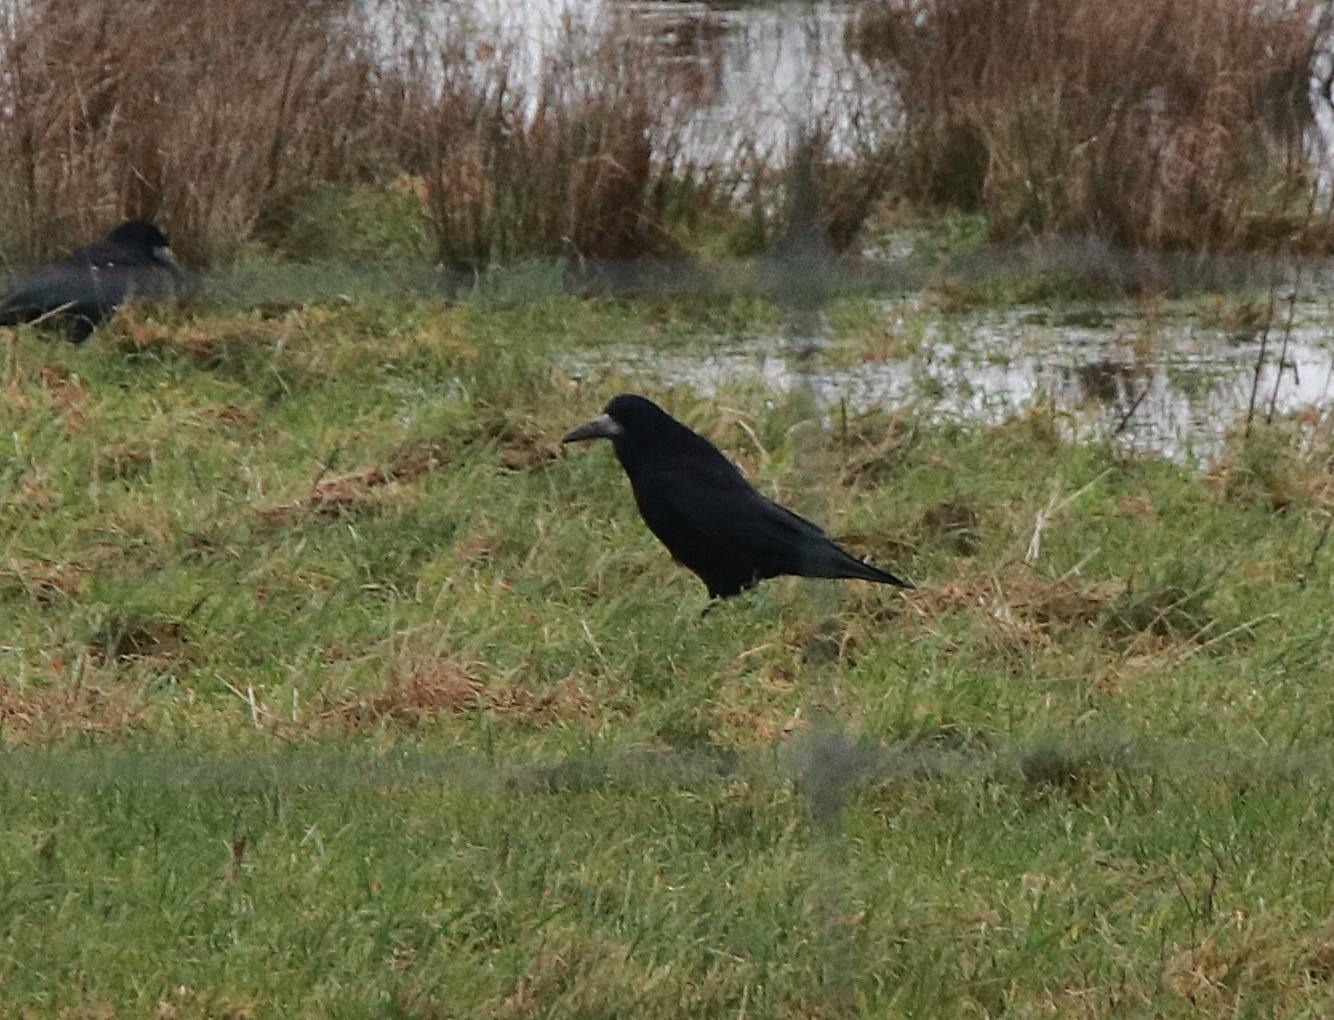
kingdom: Animalia
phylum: Chordata
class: Aves
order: Passeriformes
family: Corvidae
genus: Corvus
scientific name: Corvus frugilegus
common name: Råge
